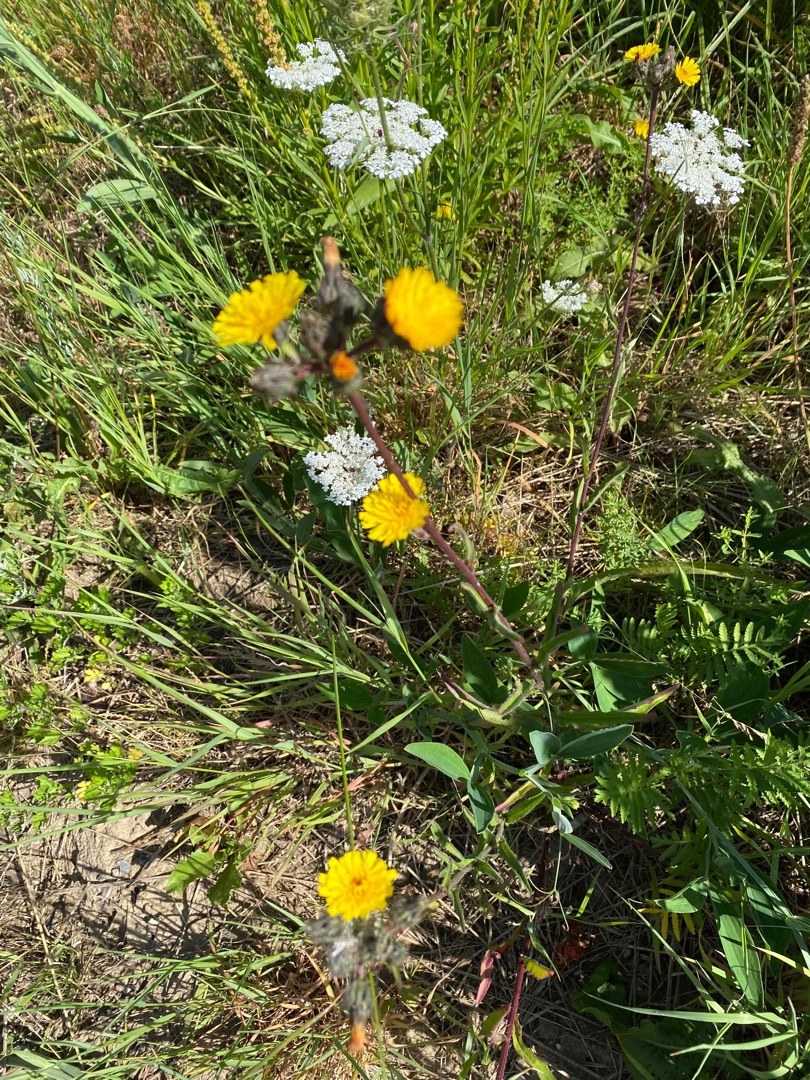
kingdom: Plantae
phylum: Tracheophyta
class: Magnoliopsida
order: Asterales
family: Asteraceae
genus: Picris
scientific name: Picris hieracioides
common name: Ru bittermælk
